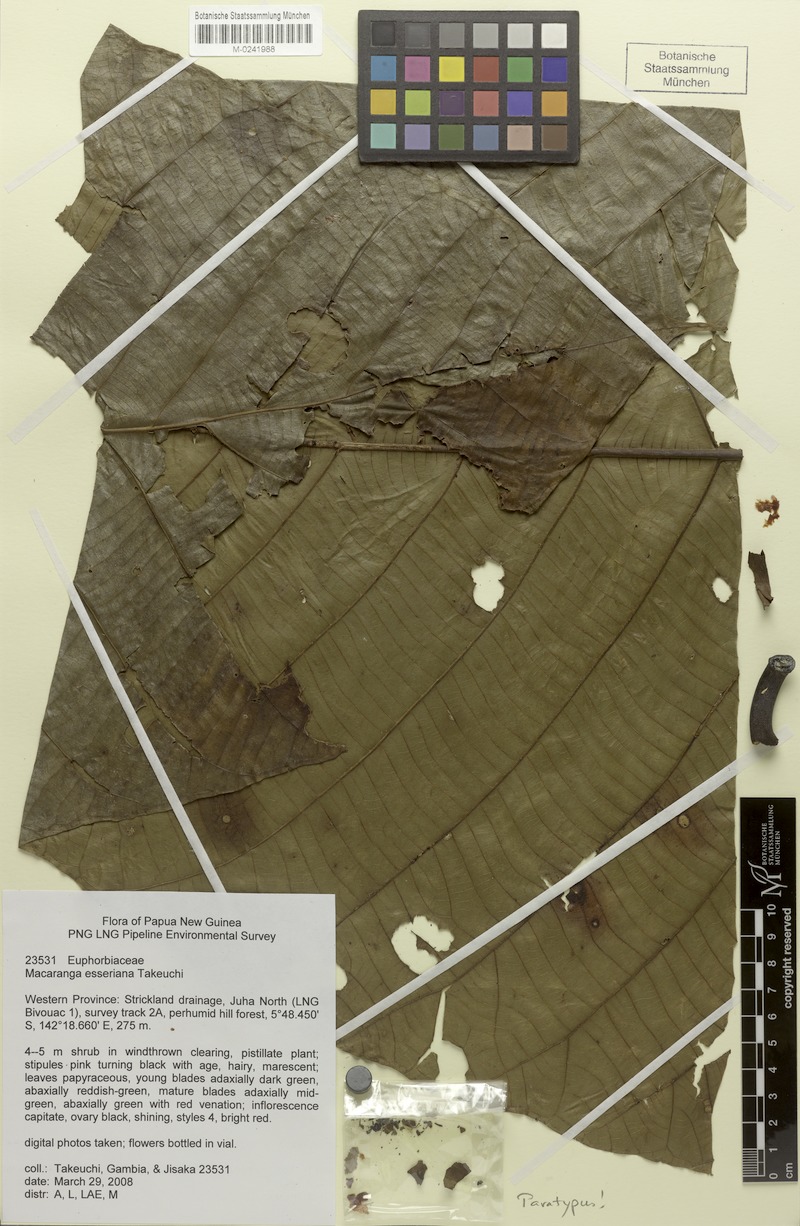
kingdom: Plantae
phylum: Tracheophyta
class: Magnoliopsida
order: Malpighiales
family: Euphorbiaceae
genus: Macaranga
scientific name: Macaranga esseriana
